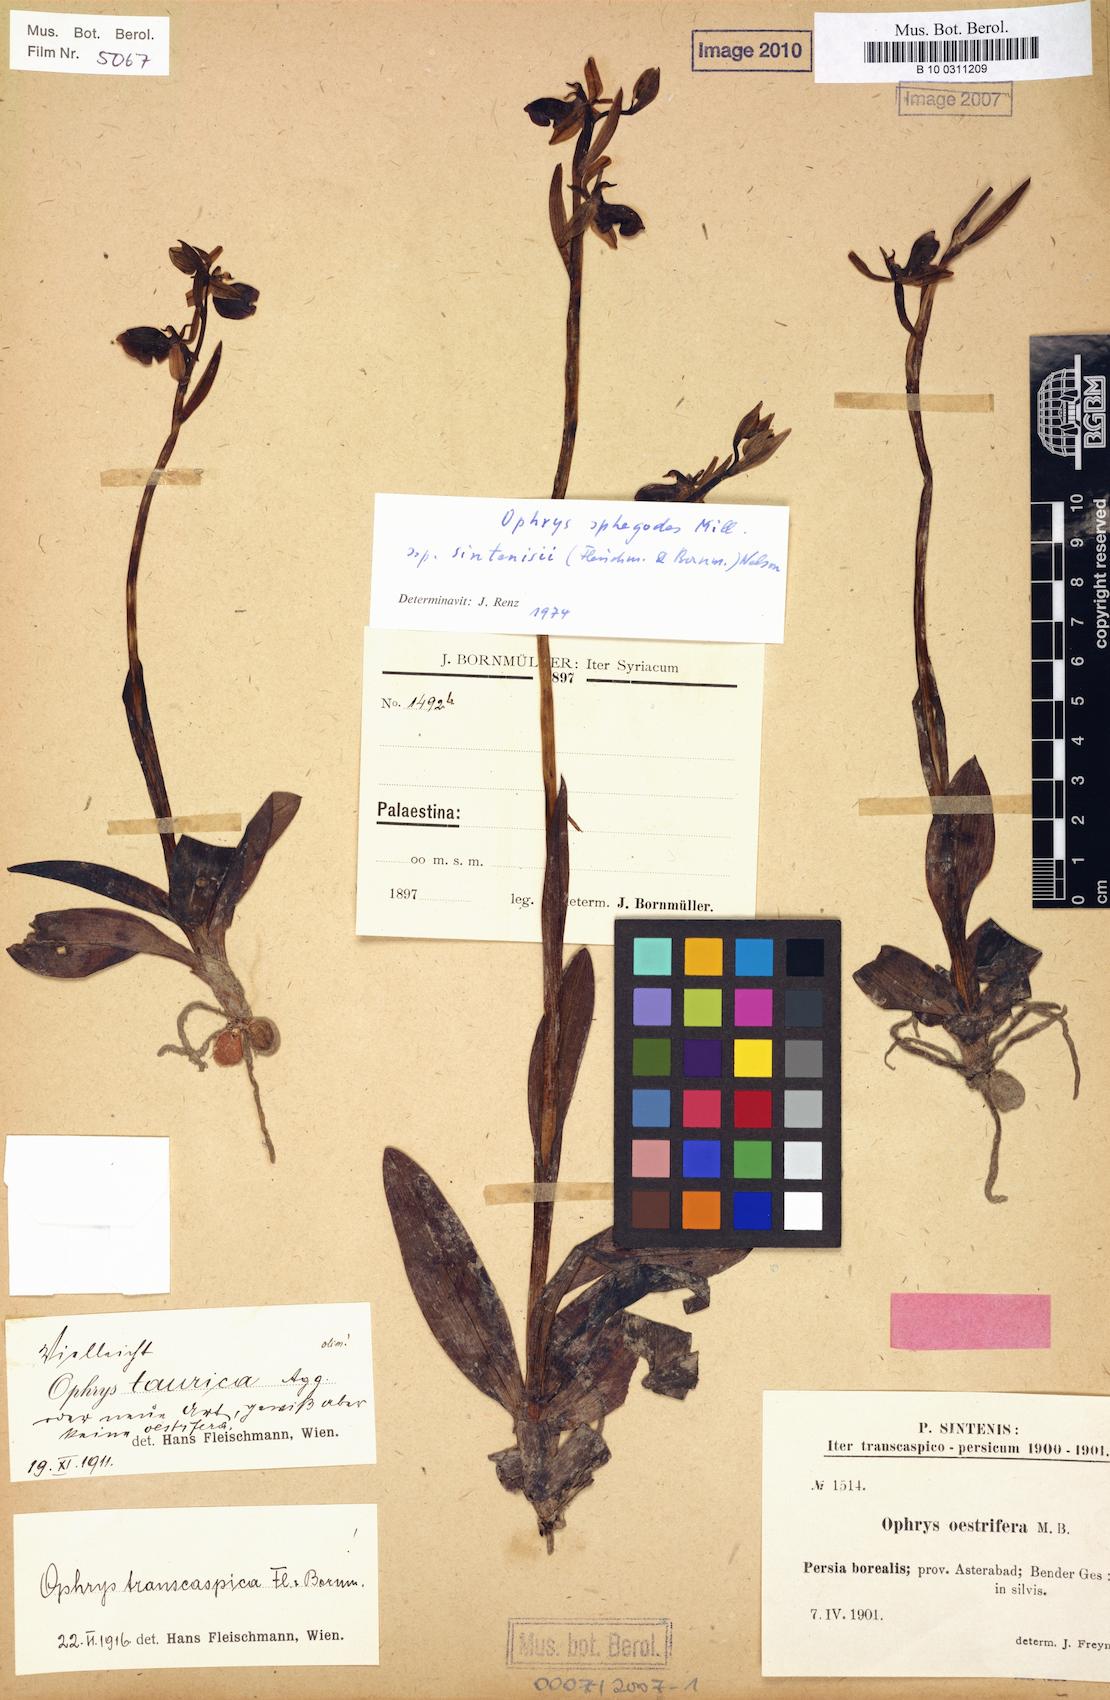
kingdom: Plantae
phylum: Tracheophyta
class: Liliopsida
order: Asparagales
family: Orchidaceae
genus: Ophrys
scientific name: Ophrys sphegodes
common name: Early spider-orchid
